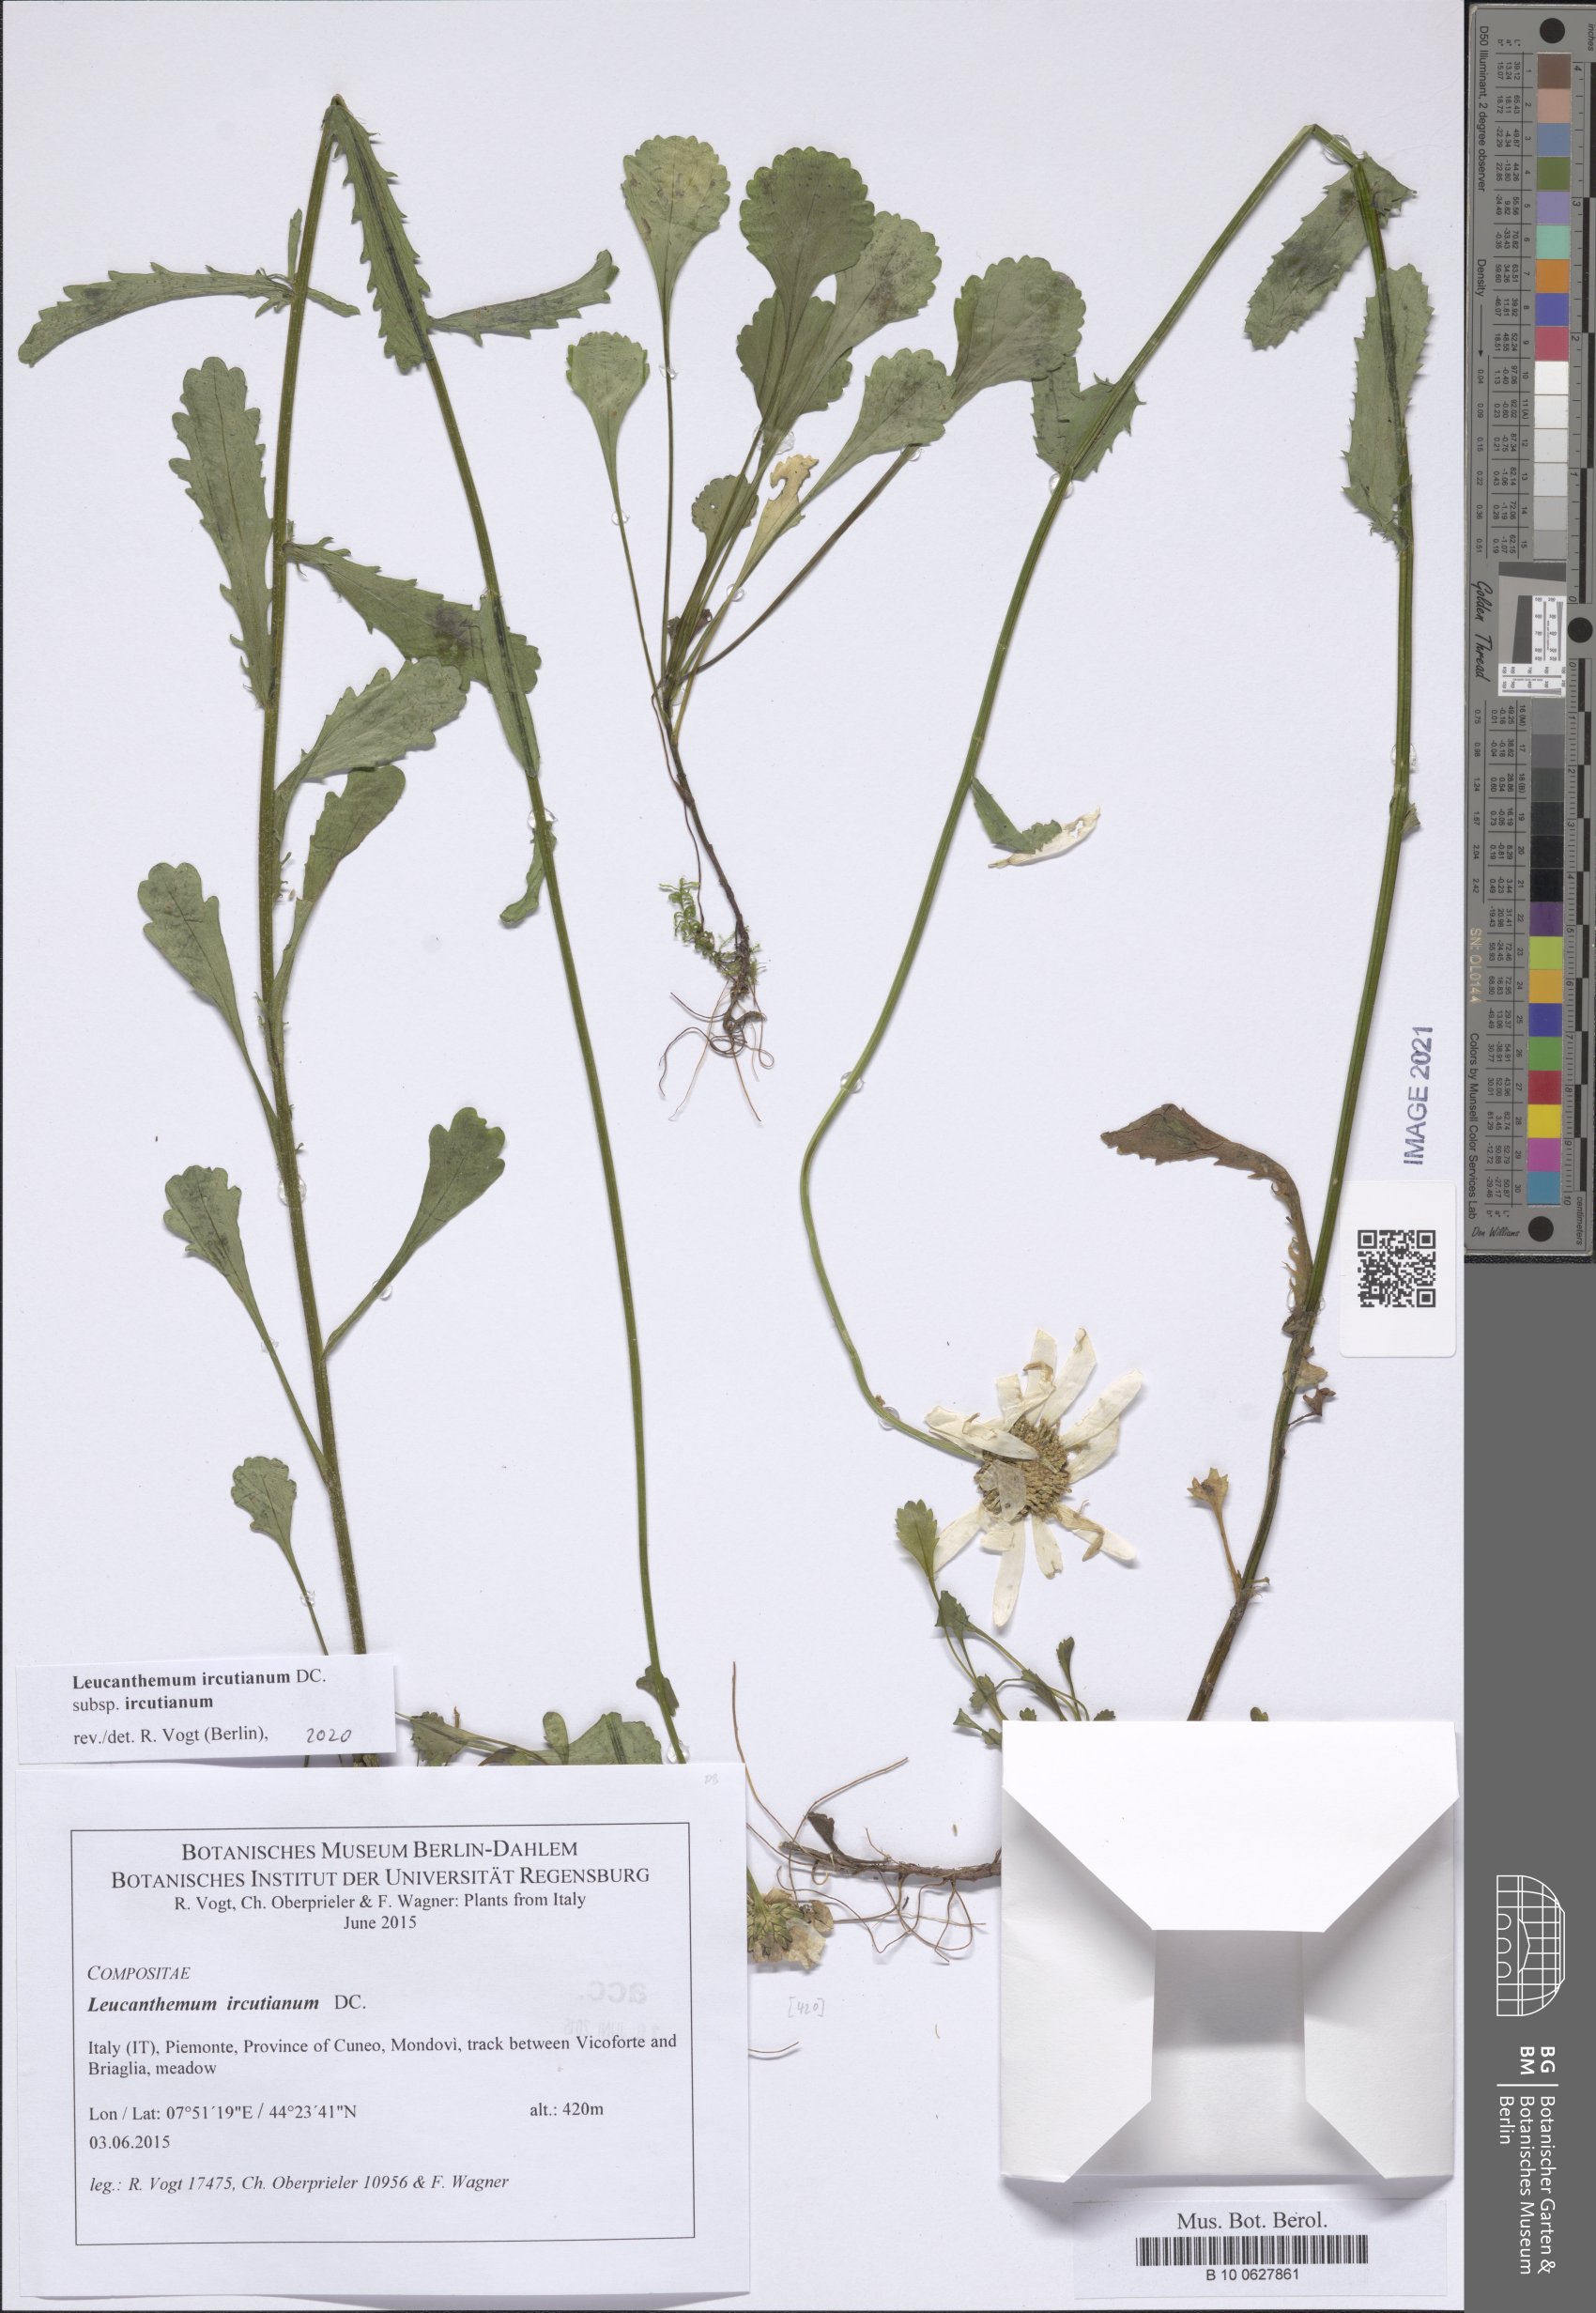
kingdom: Plantae
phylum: Tracheophyta
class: Magnoliopsida
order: Asterales
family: Asteraceae
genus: Leucanthemum
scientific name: Leucanthemum ircutianum
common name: Daisy
